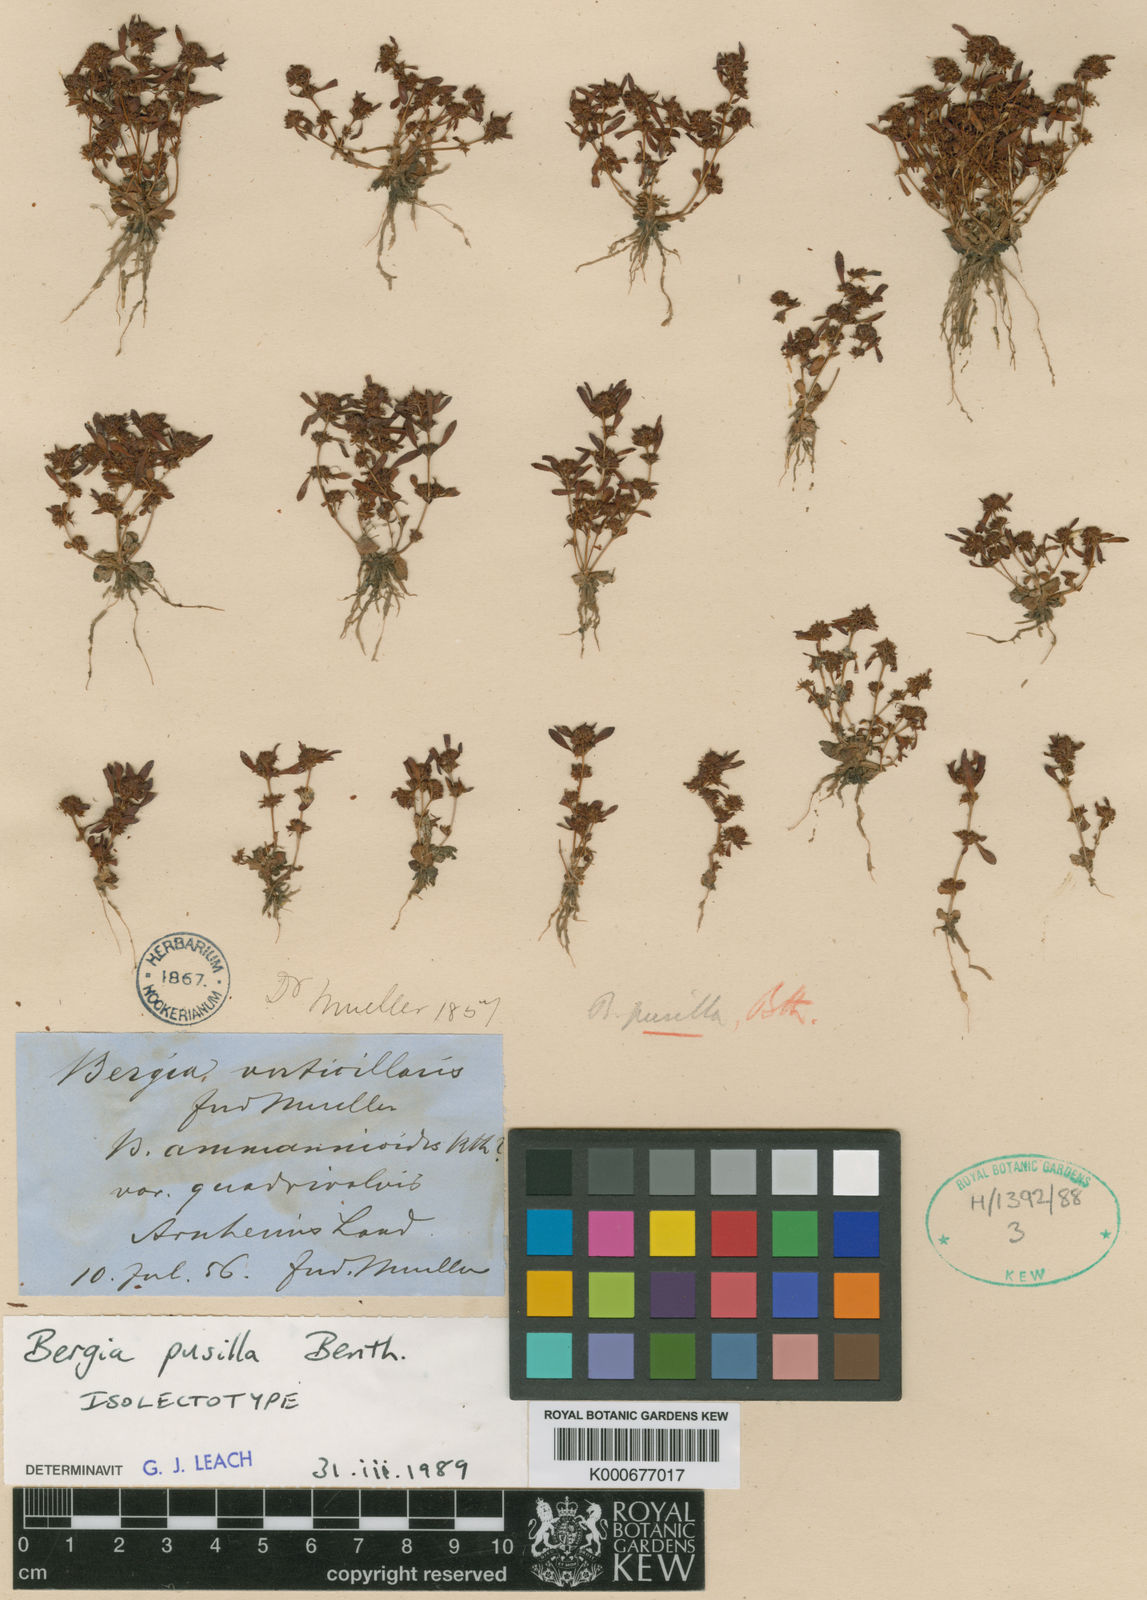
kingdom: Plantae
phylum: Tracheophyta
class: Magnoliopsida
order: Malpighiales
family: Elatinaceae
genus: Bergia
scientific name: Bergia pusilla
